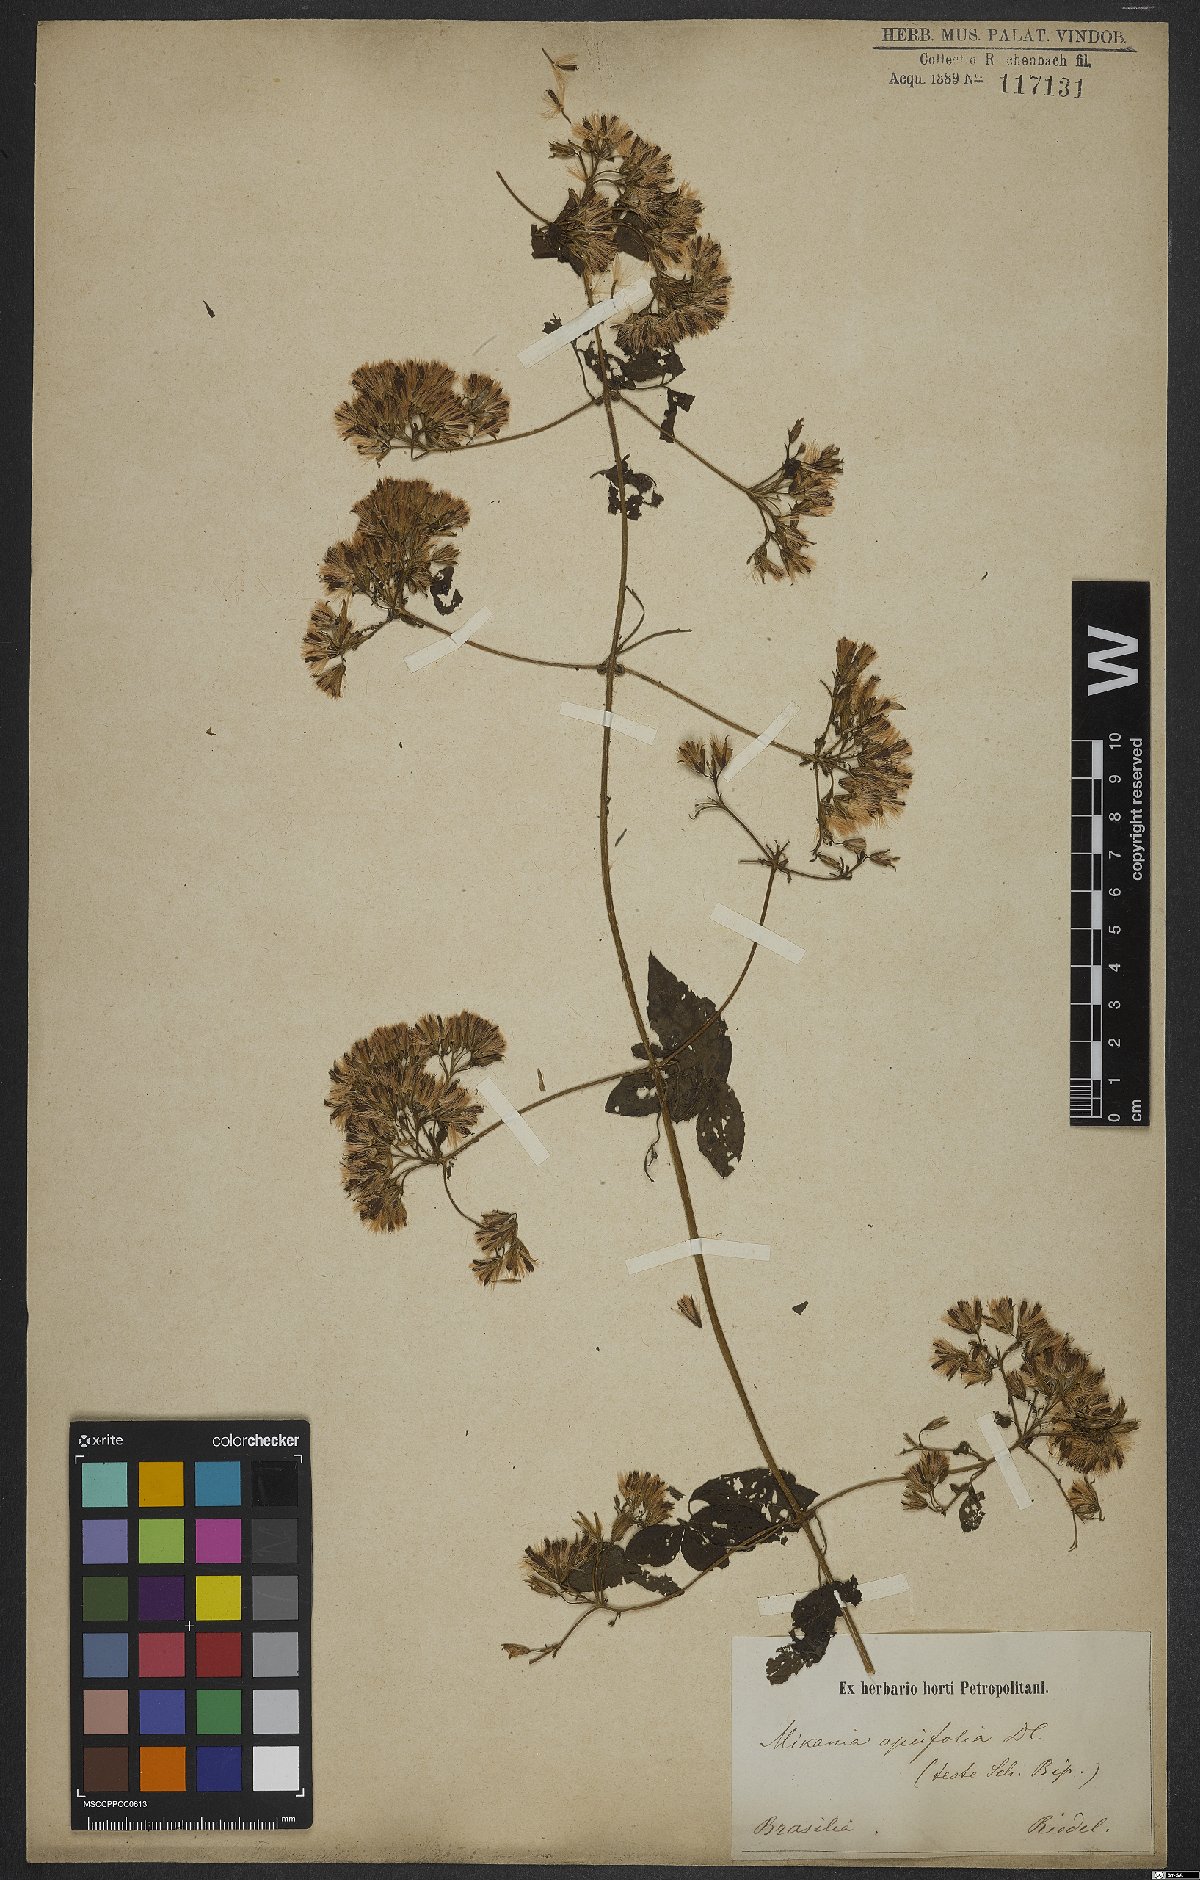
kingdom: Plantae
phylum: Tracheophyta
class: Magnoliopsida
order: Asterales
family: Asteraceae
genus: Mikania
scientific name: Mikania ternata
